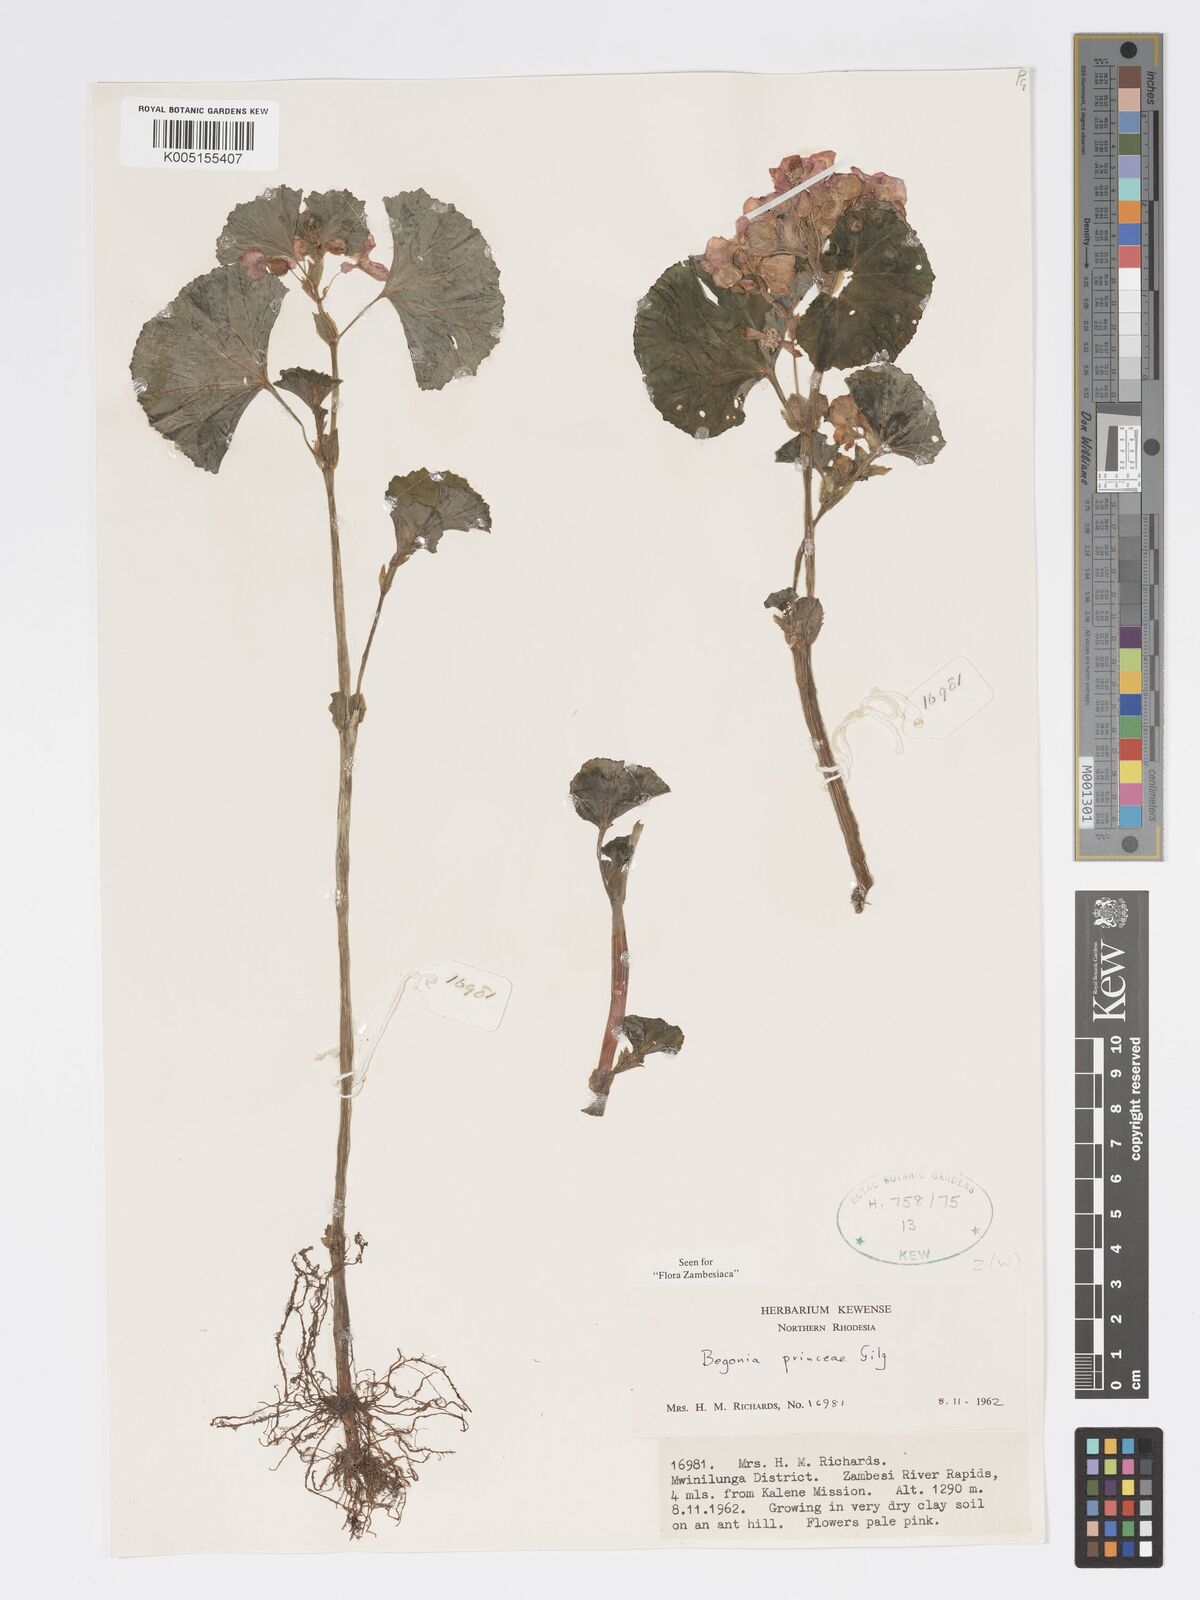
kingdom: Plantae
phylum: Tracheophyta
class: Magnoliopsida
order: Cucurbitales
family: Begoniaceae
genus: Begonia
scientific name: Begonia princeae
